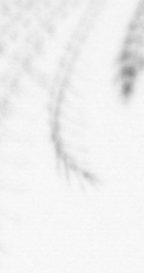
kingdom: Animalia
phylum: Arthropoda
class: Maxillopoda
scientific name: Maxillopoda
